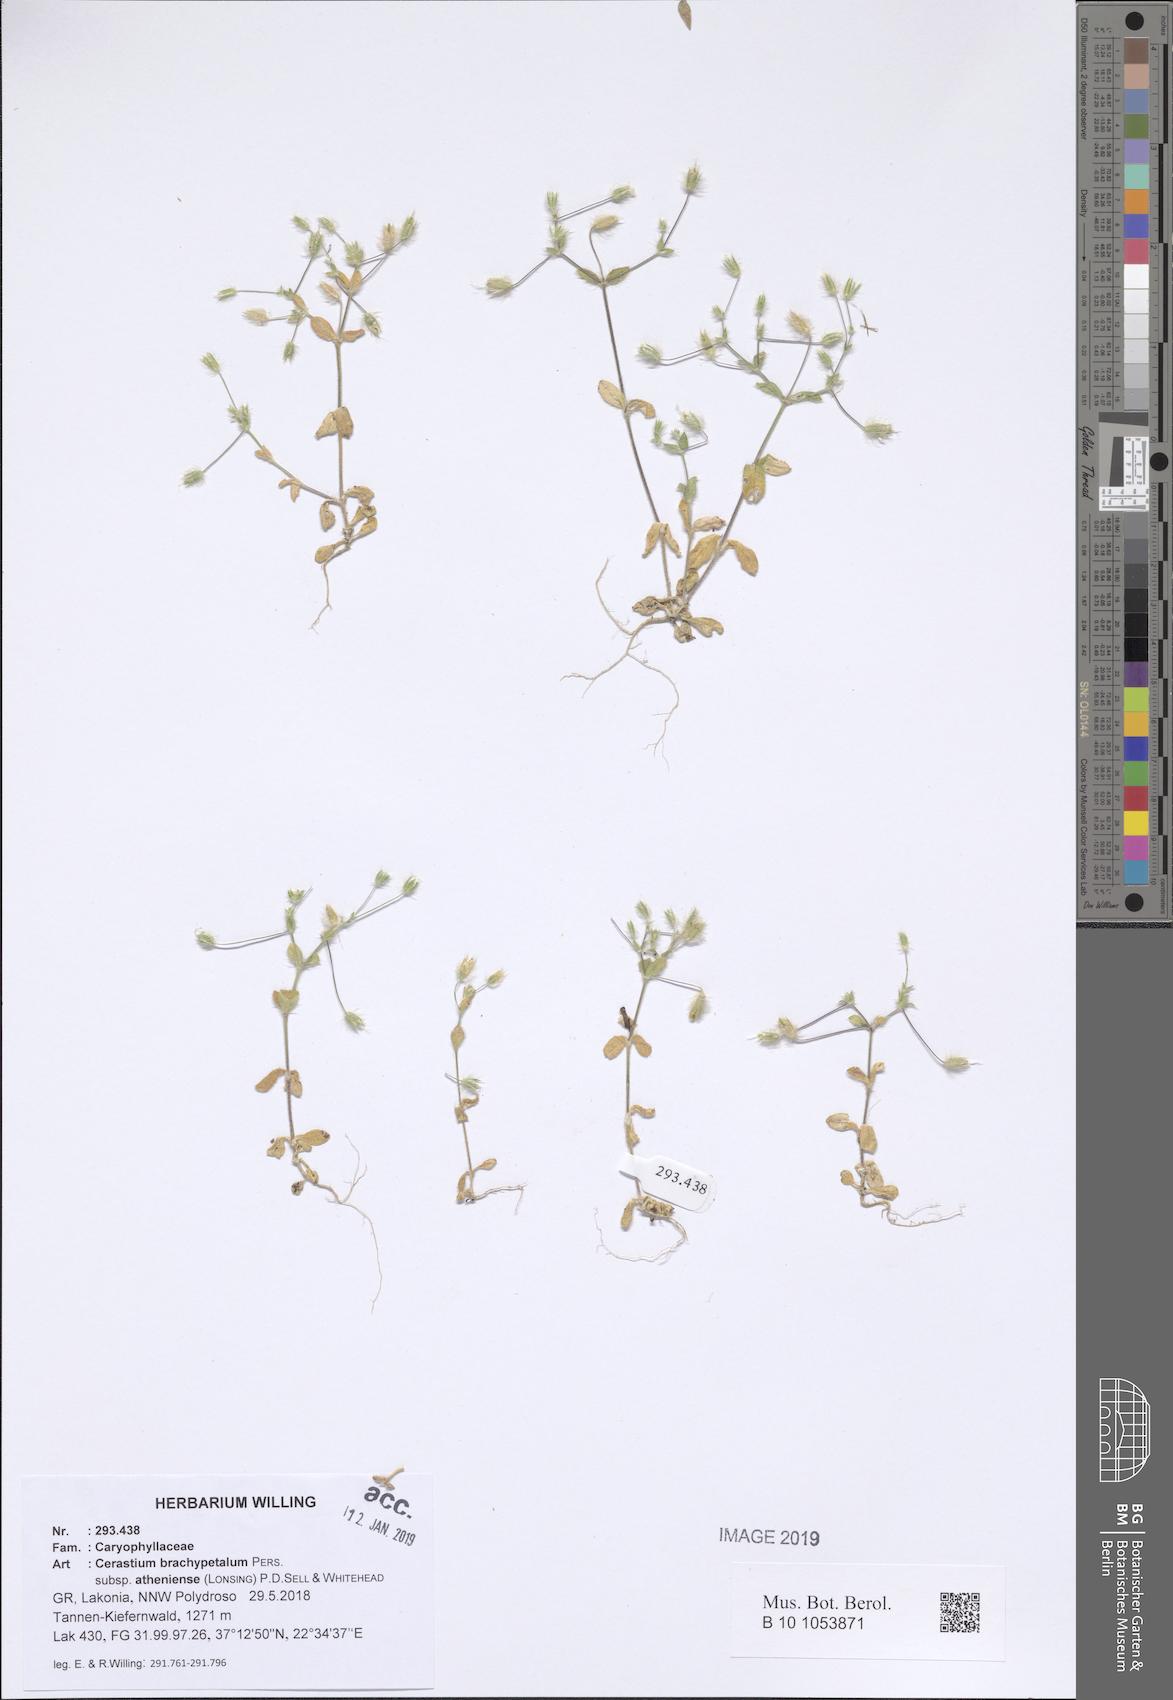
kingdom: Plantae
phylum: Tracheophyta
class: Magnoliopsida
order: Caryophyllales
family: Caryophyllaceae
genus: Cerastium
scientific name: Cerastium brachypetalum
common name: Grey mouse-ear
